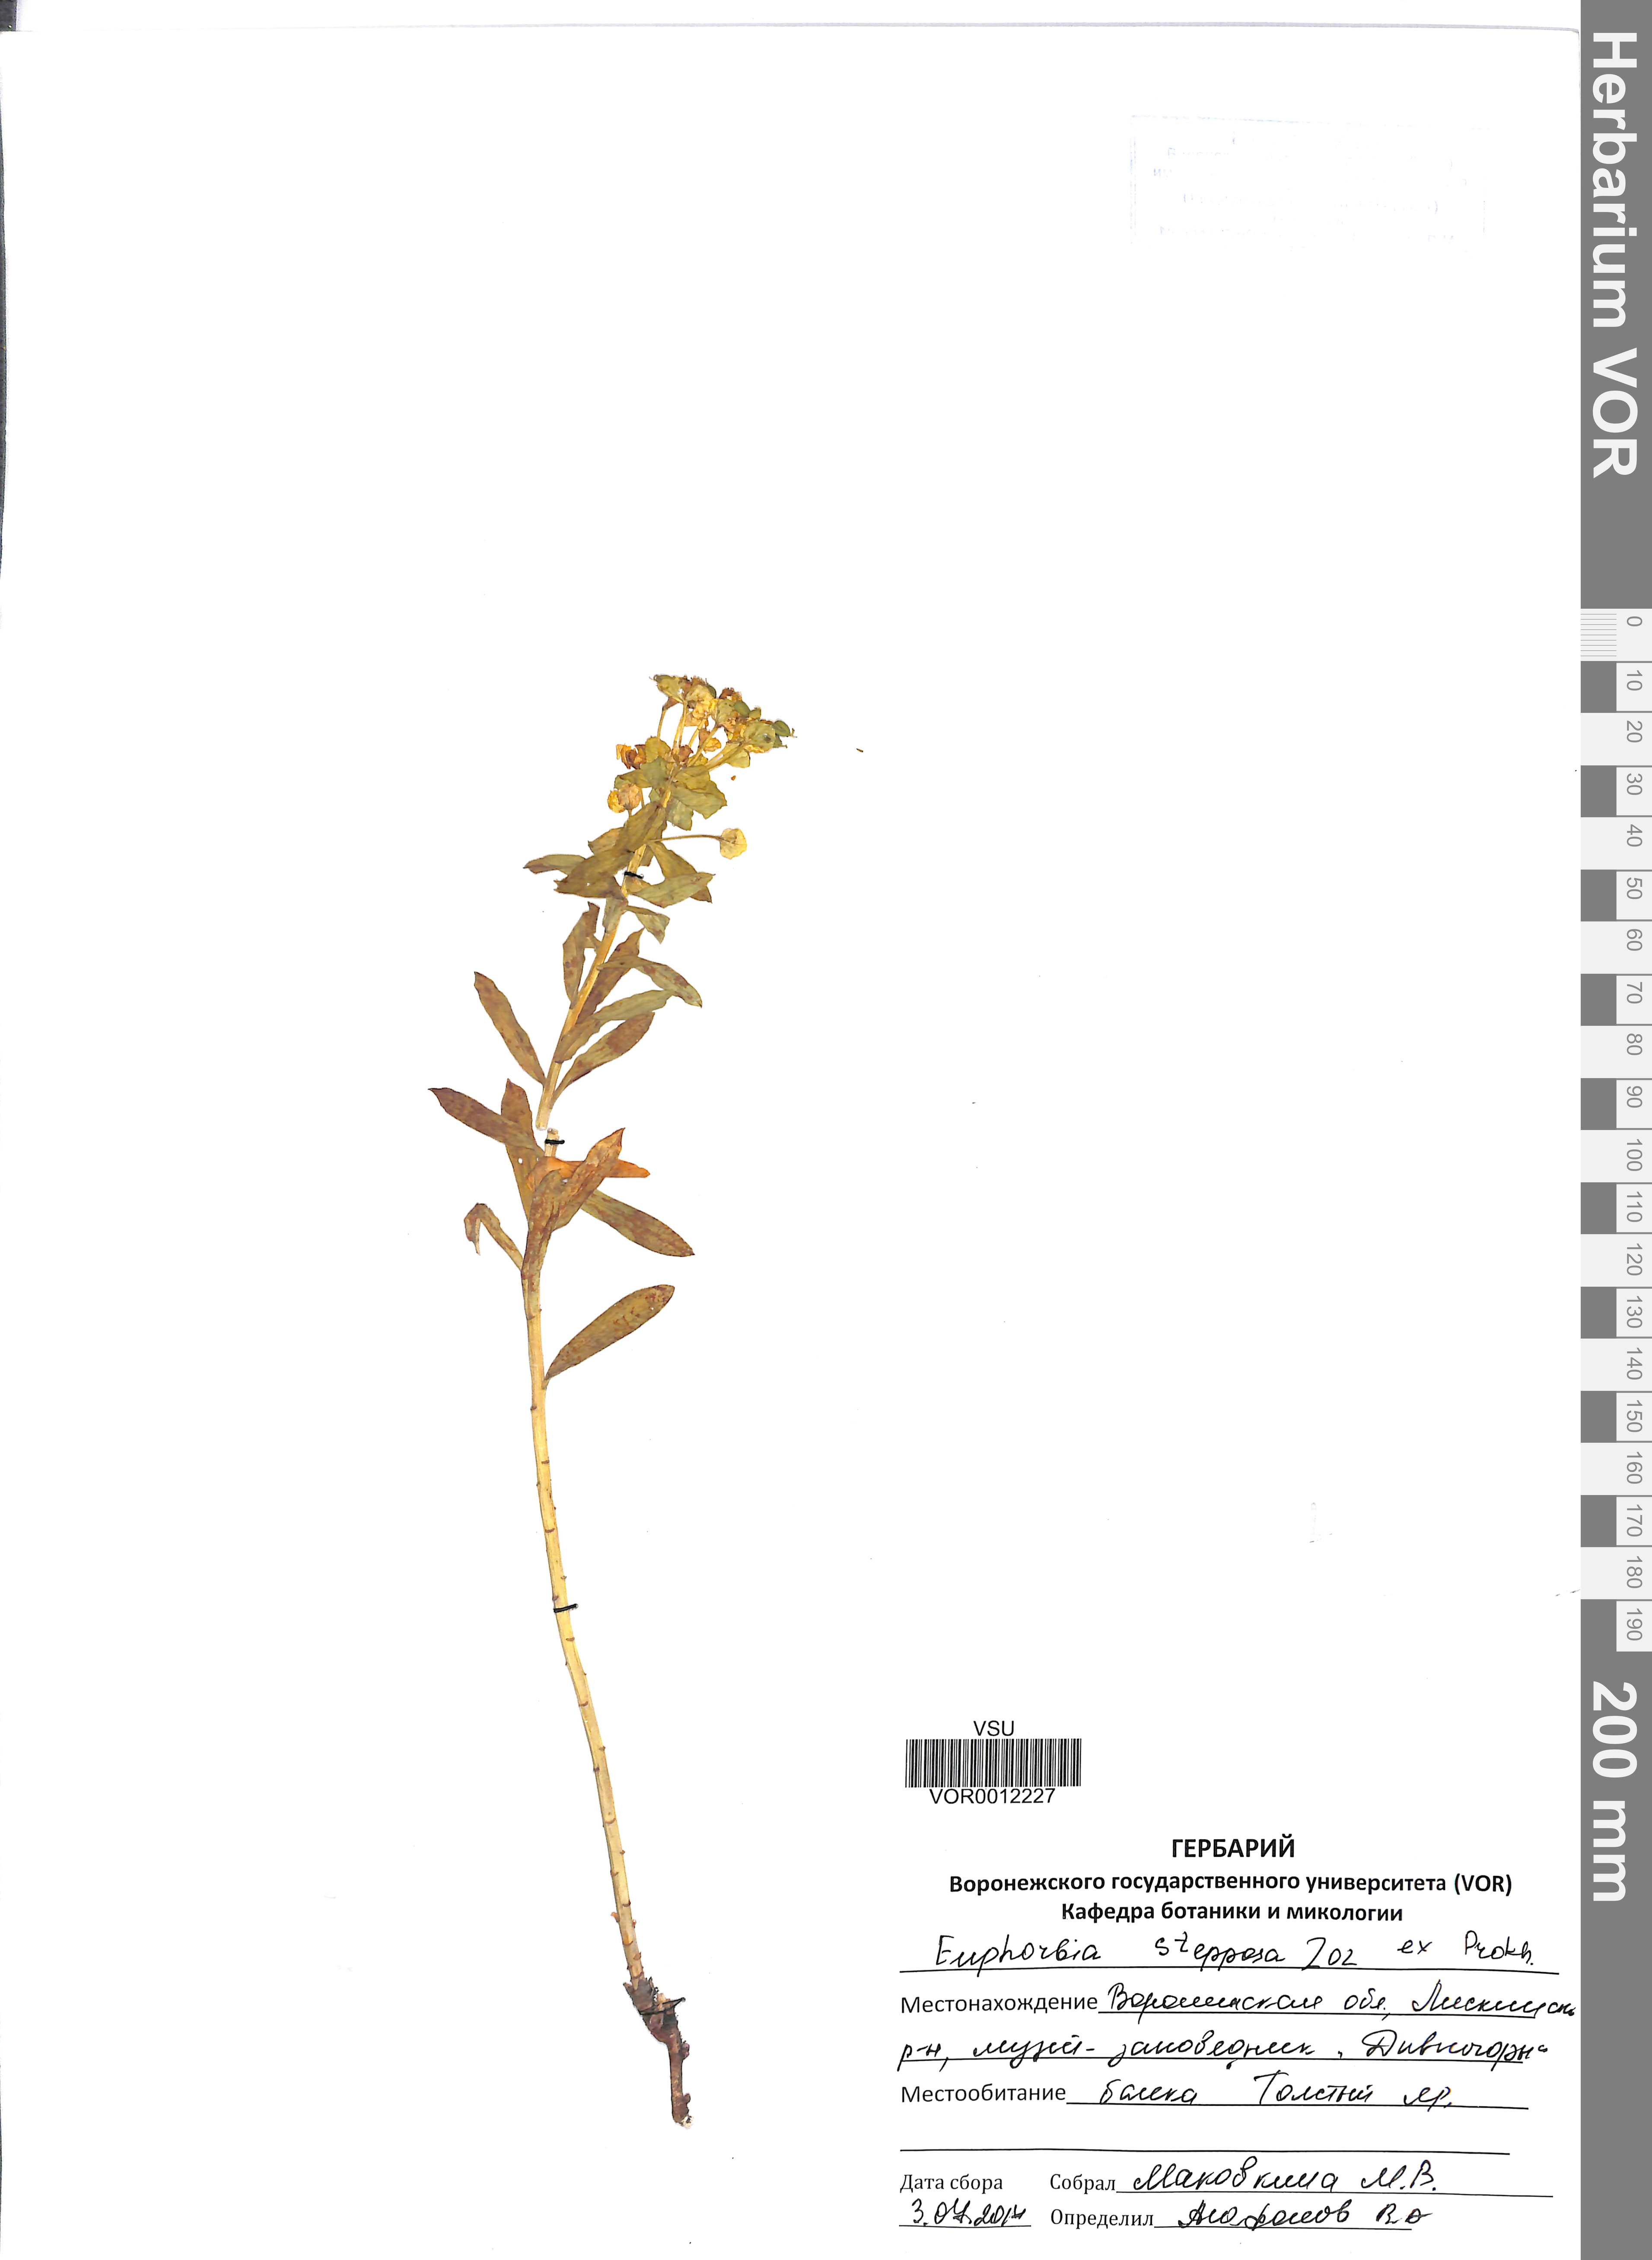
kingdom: Plantae
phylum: Tracheophyta
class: Magnoliopsida
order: Malpighiales
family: Euphorbiaceae
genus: Euphorbia
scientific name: Euphorbia stepposa
